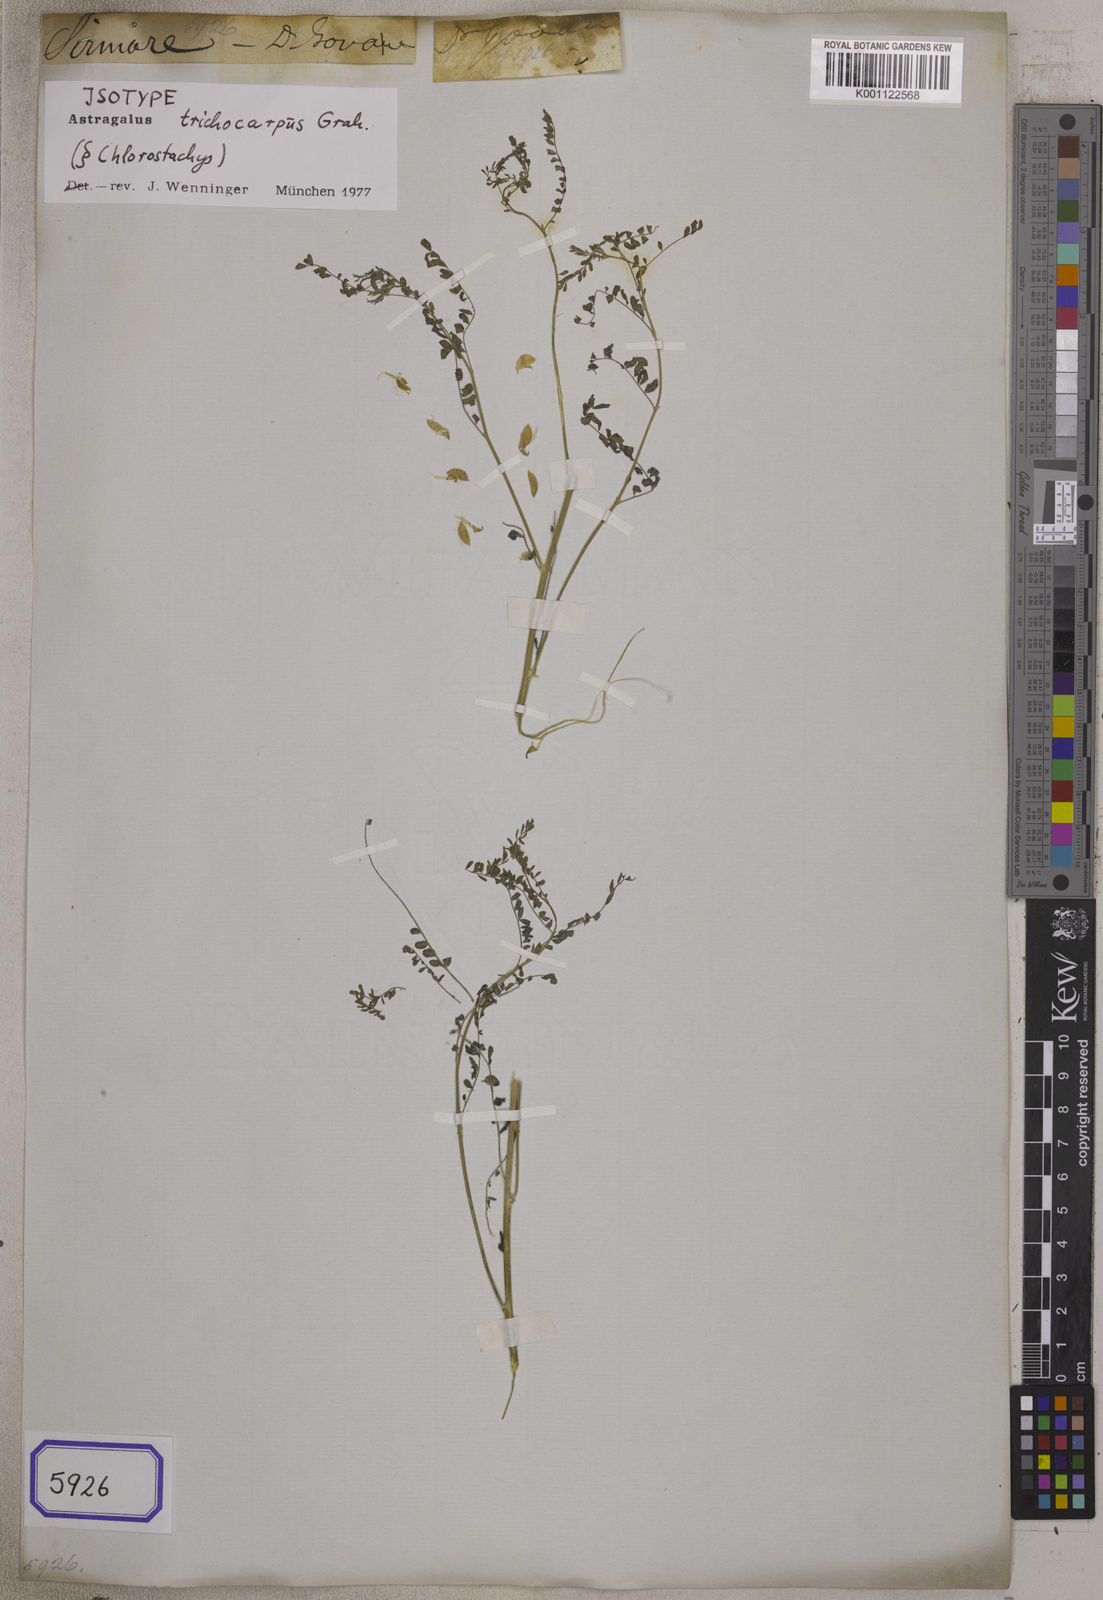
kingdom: Plantae
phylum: Tracheophyta
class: Magnoliopsida
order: Fabales
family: Fabaceae
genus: Astragalus
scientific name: Astragalus
